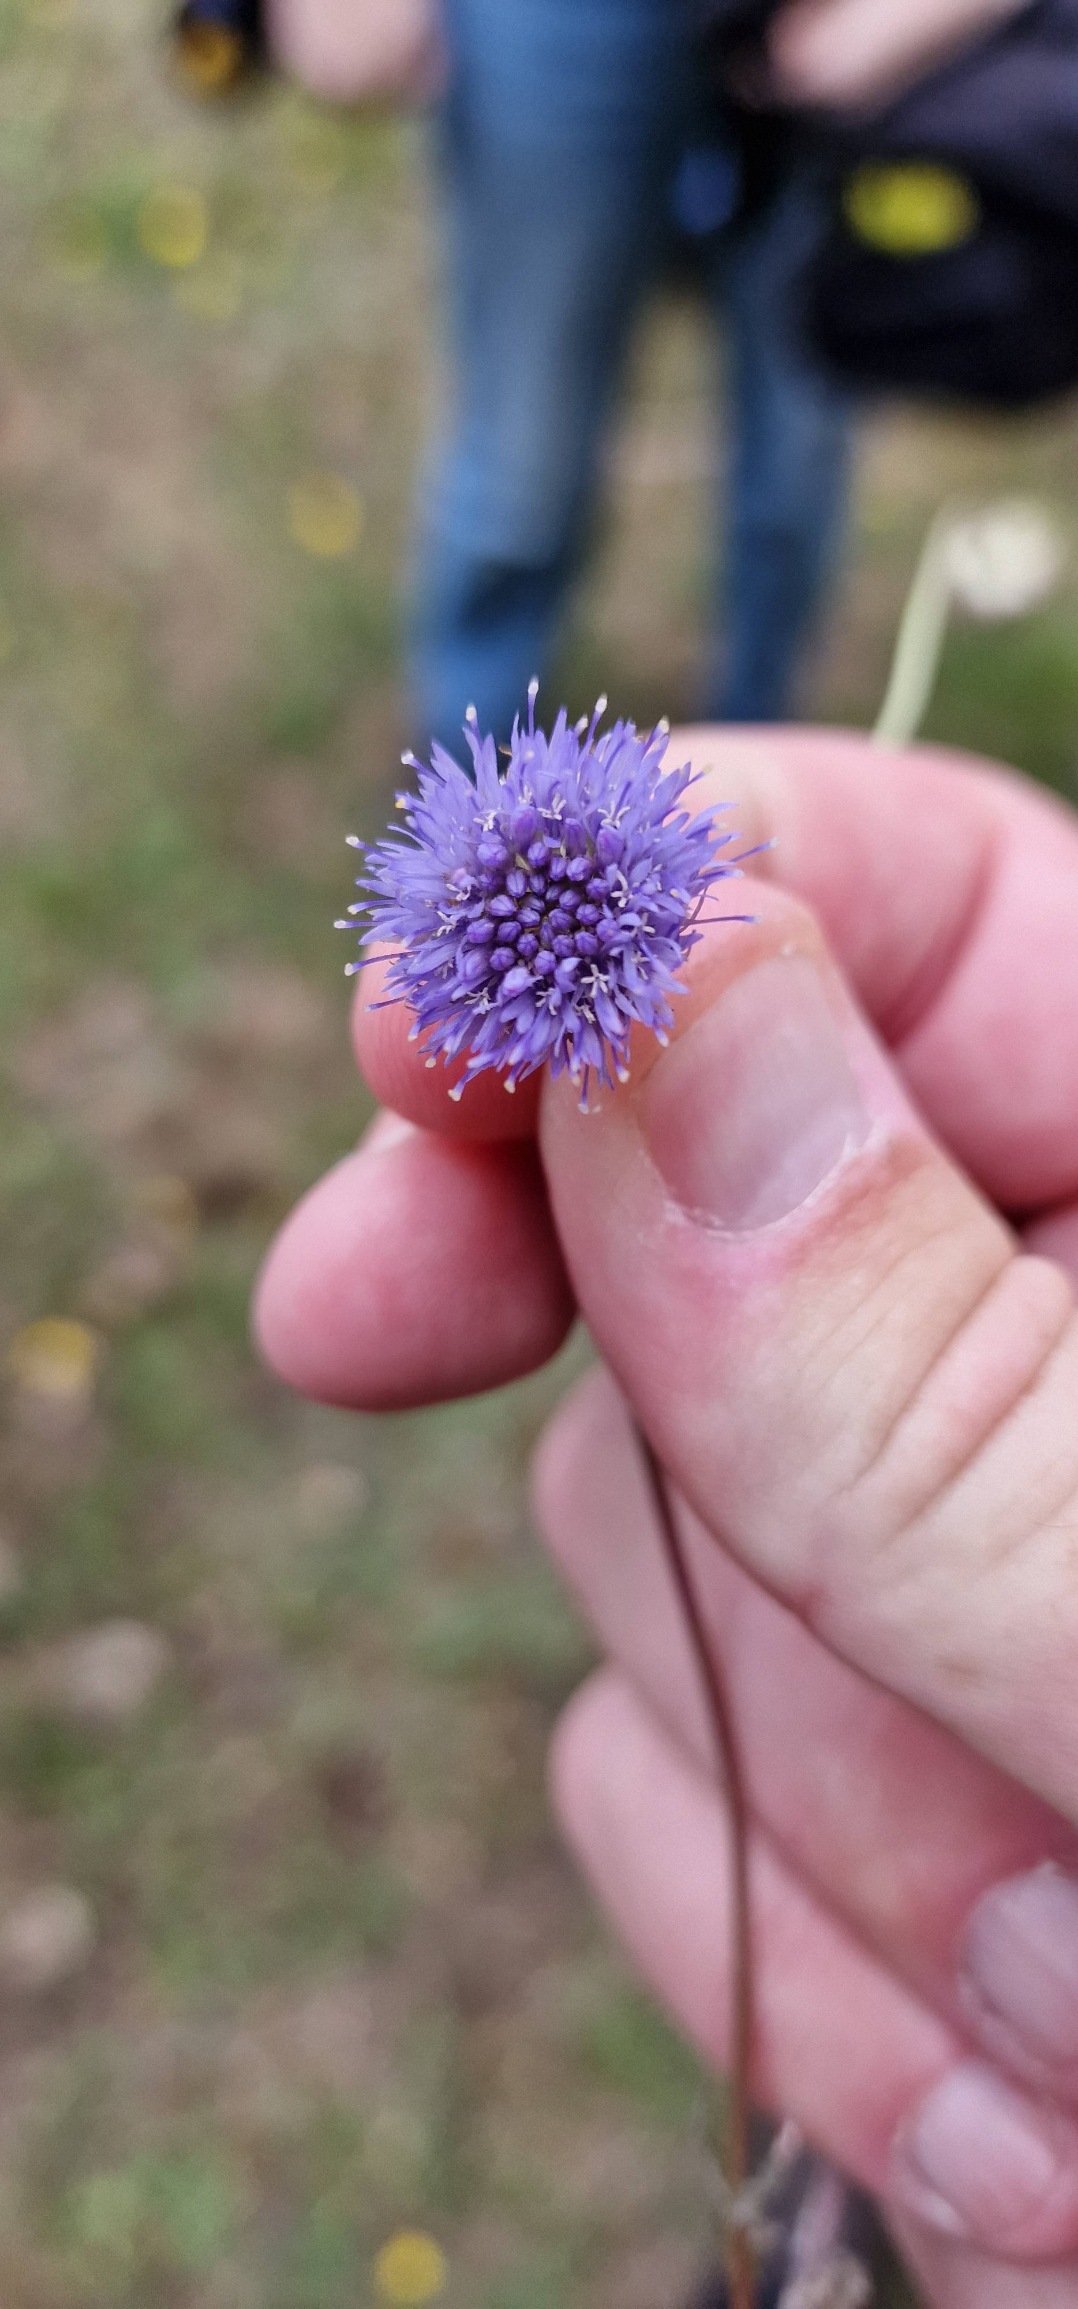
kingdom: Plantae
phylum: Tracheophyta
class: Magnoliopsida
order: Asterales
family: Campanulaceae
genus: Jasione
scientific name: Jasione montana
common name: Blåmunke
